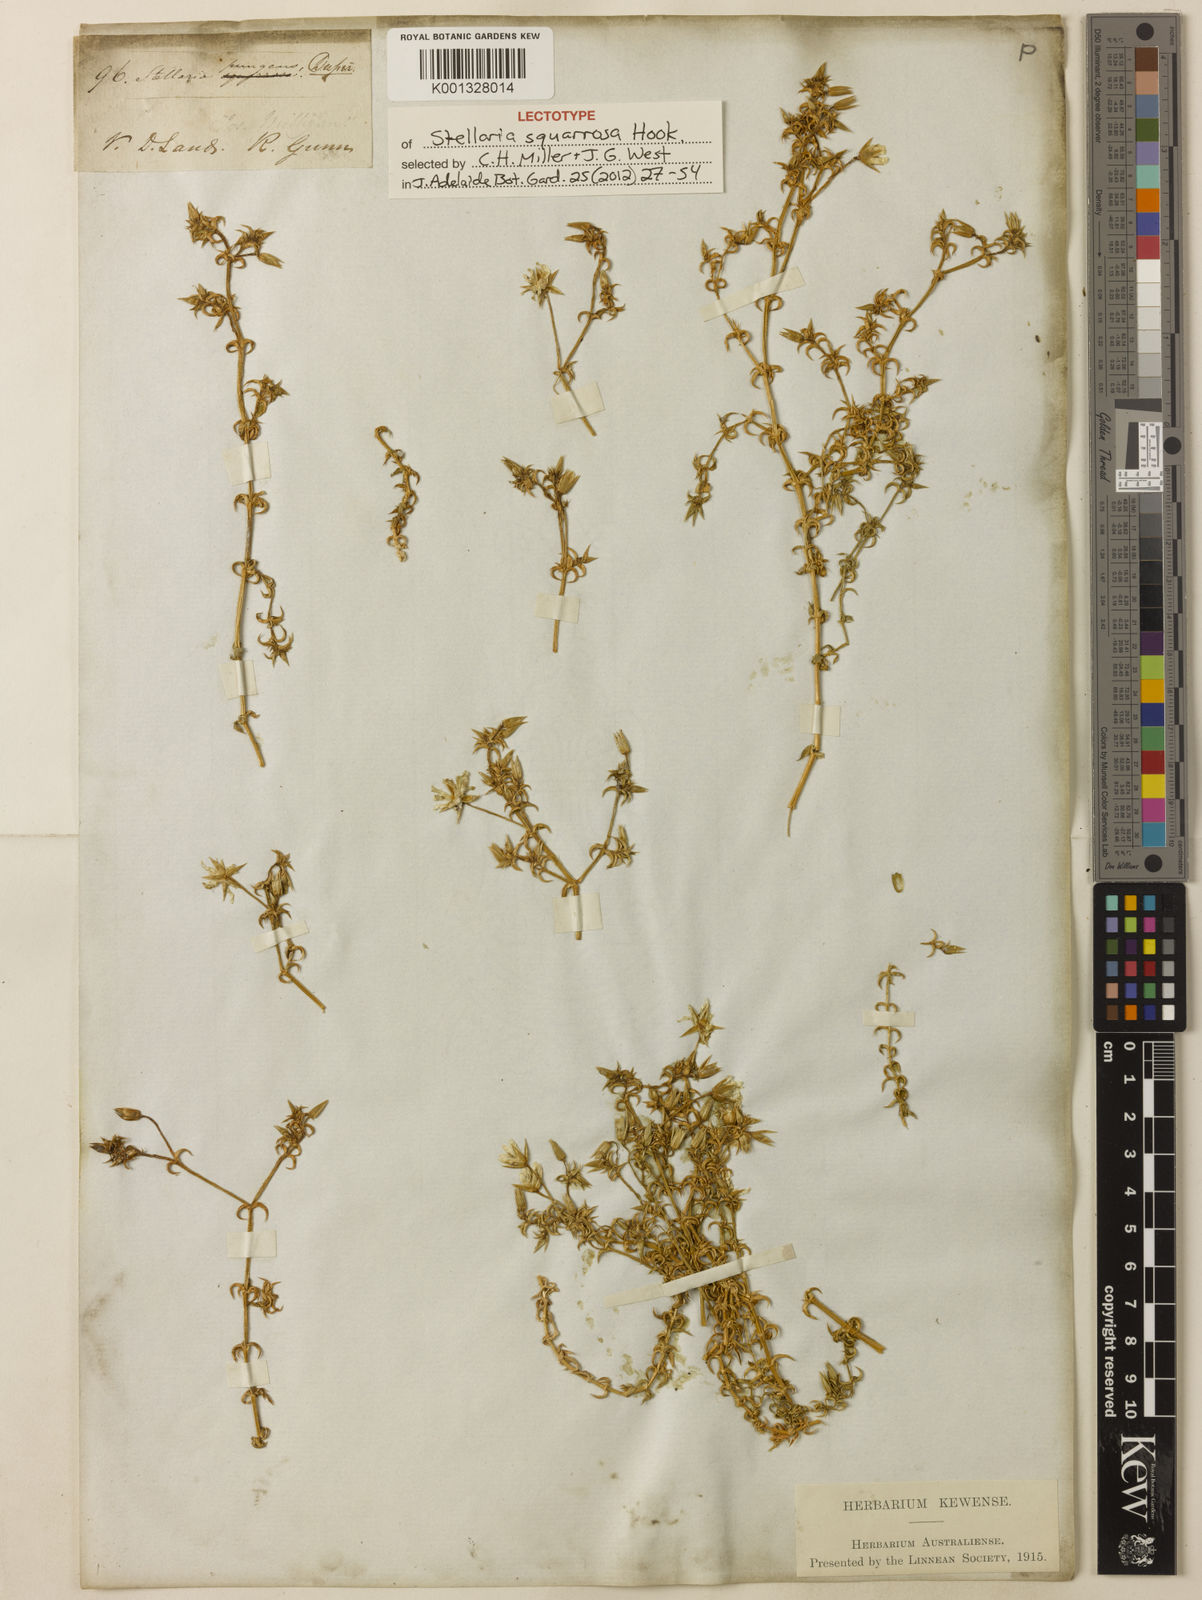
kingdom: Plantae
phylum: Tracheophyta
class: Magnoliopsida
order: Caryophyllales
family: Caryophyllaceae
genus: Stellaria
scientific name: Stellaria pungens
